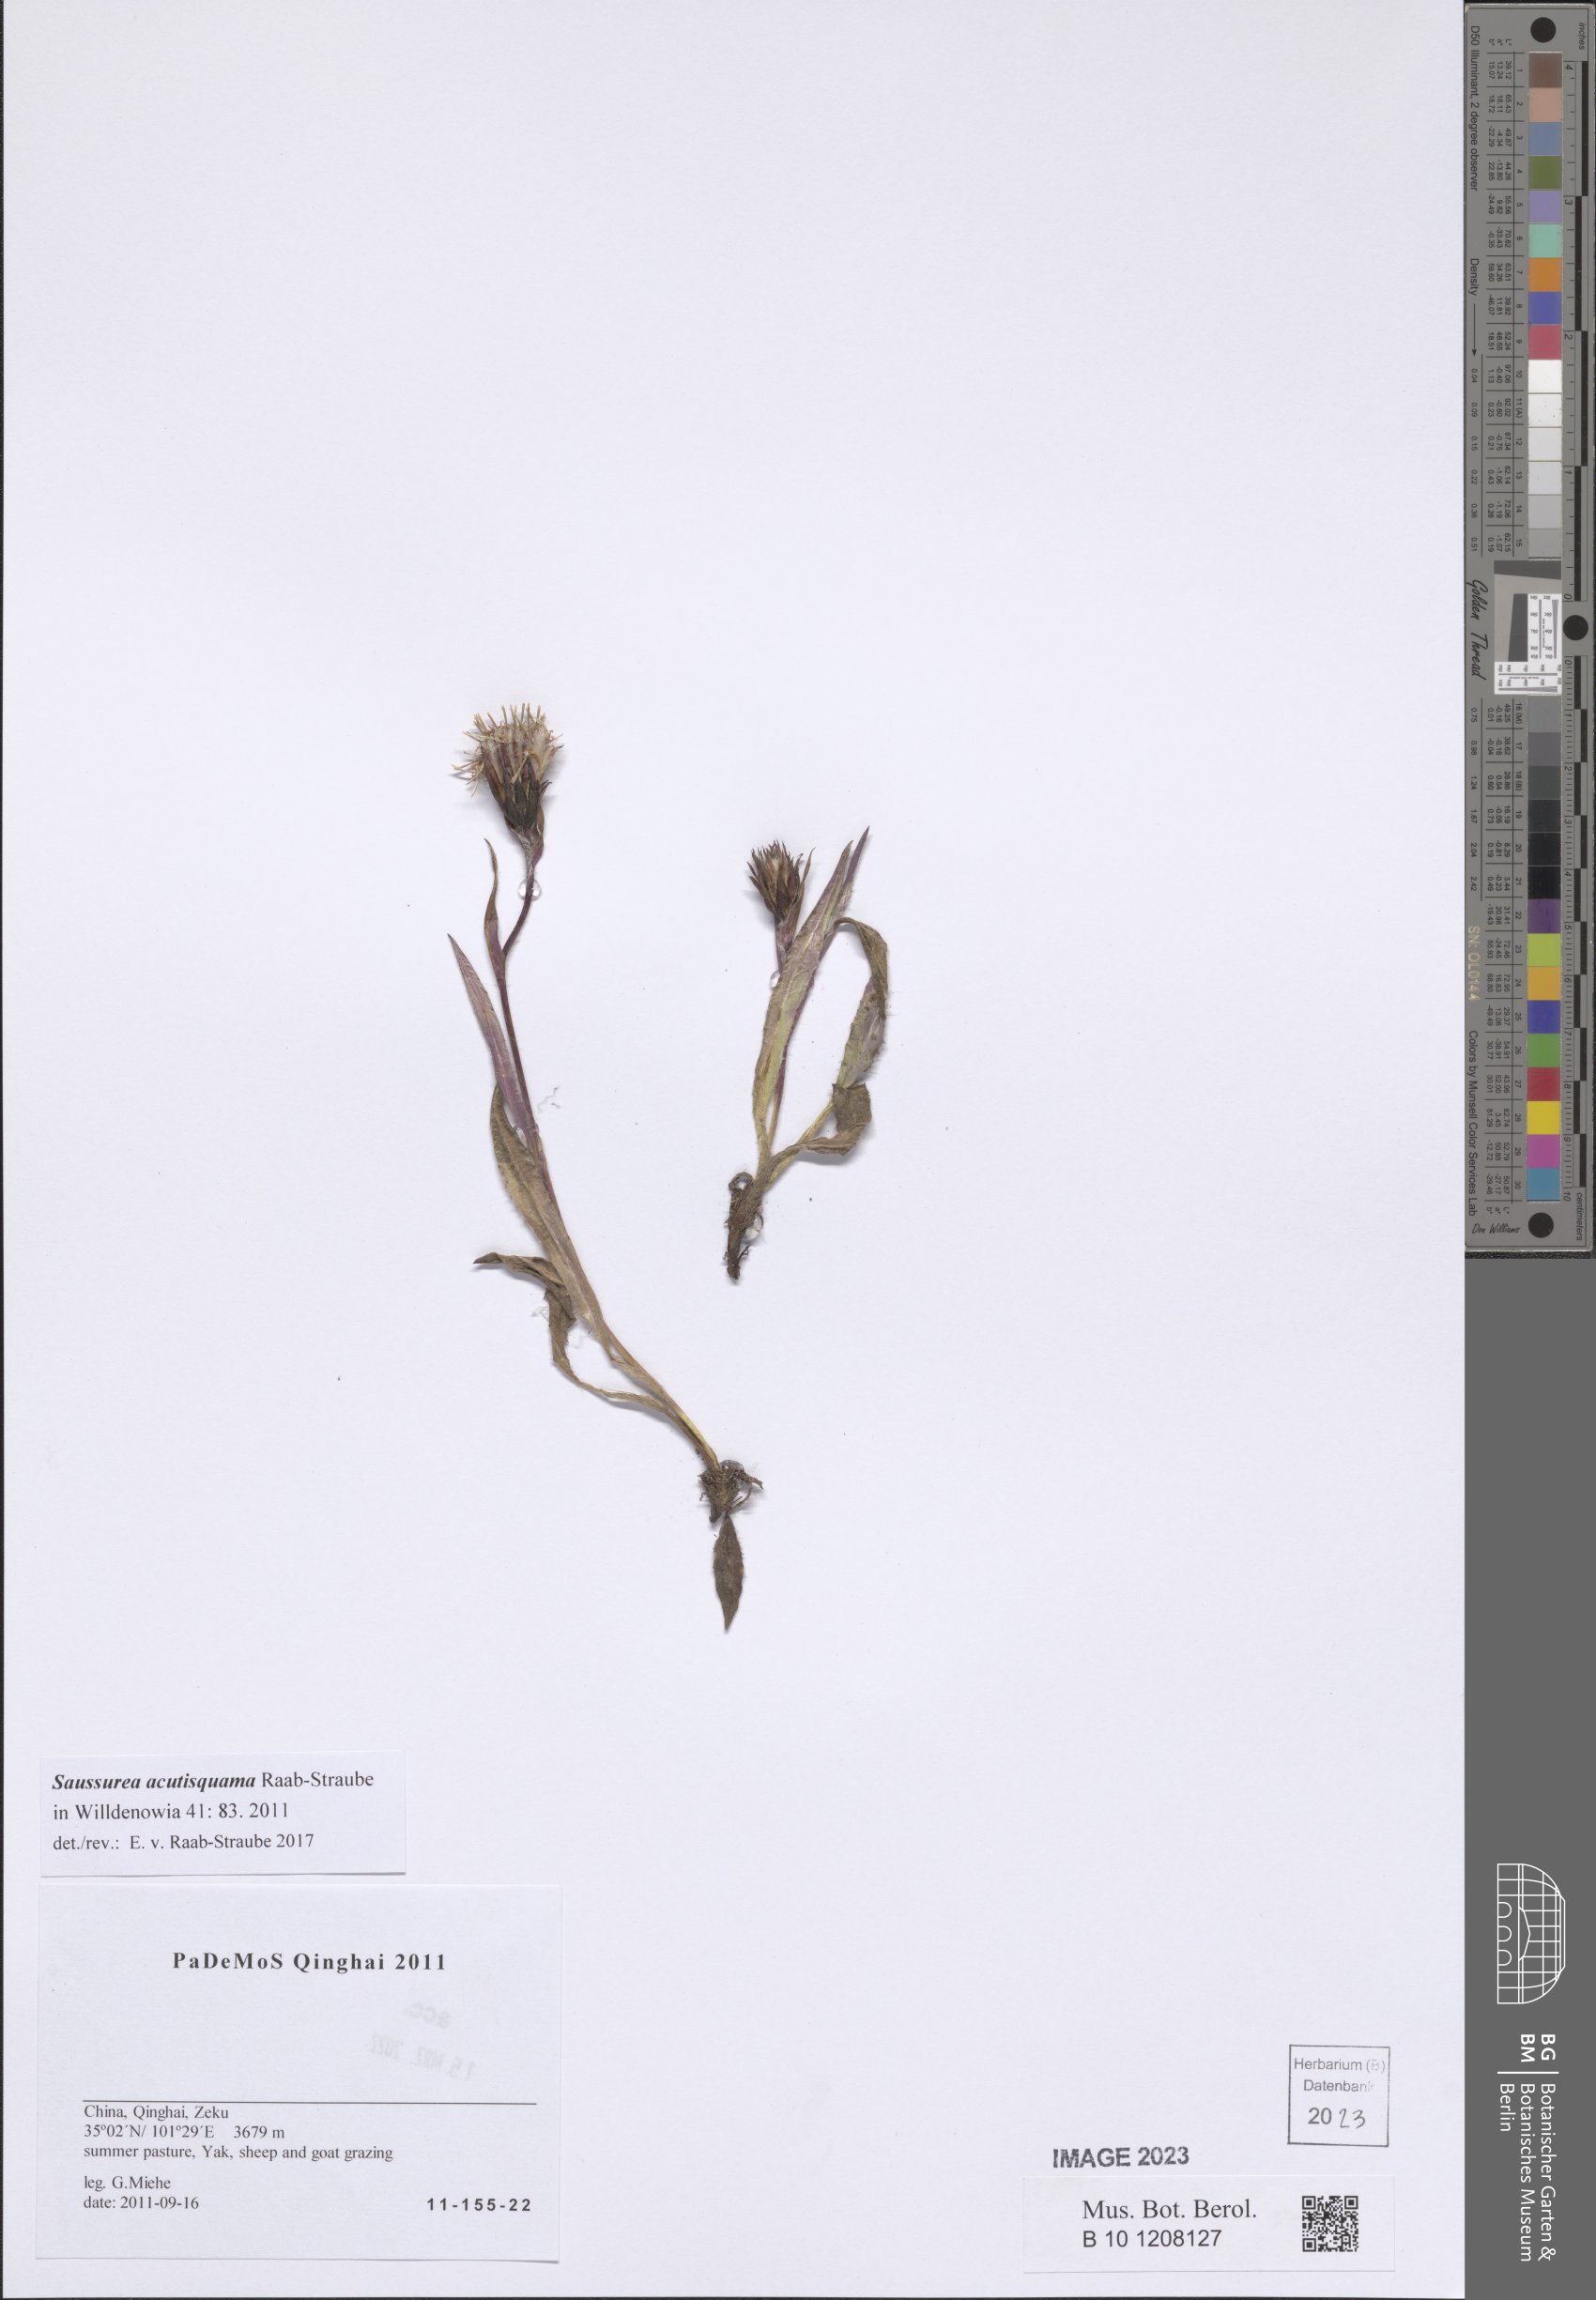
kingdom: Plantae
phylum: Tracheophyta
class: Magnoliopsida
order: Asterales
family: Asteraceae
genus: Saussurea
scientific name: Saussurea acutisquama
